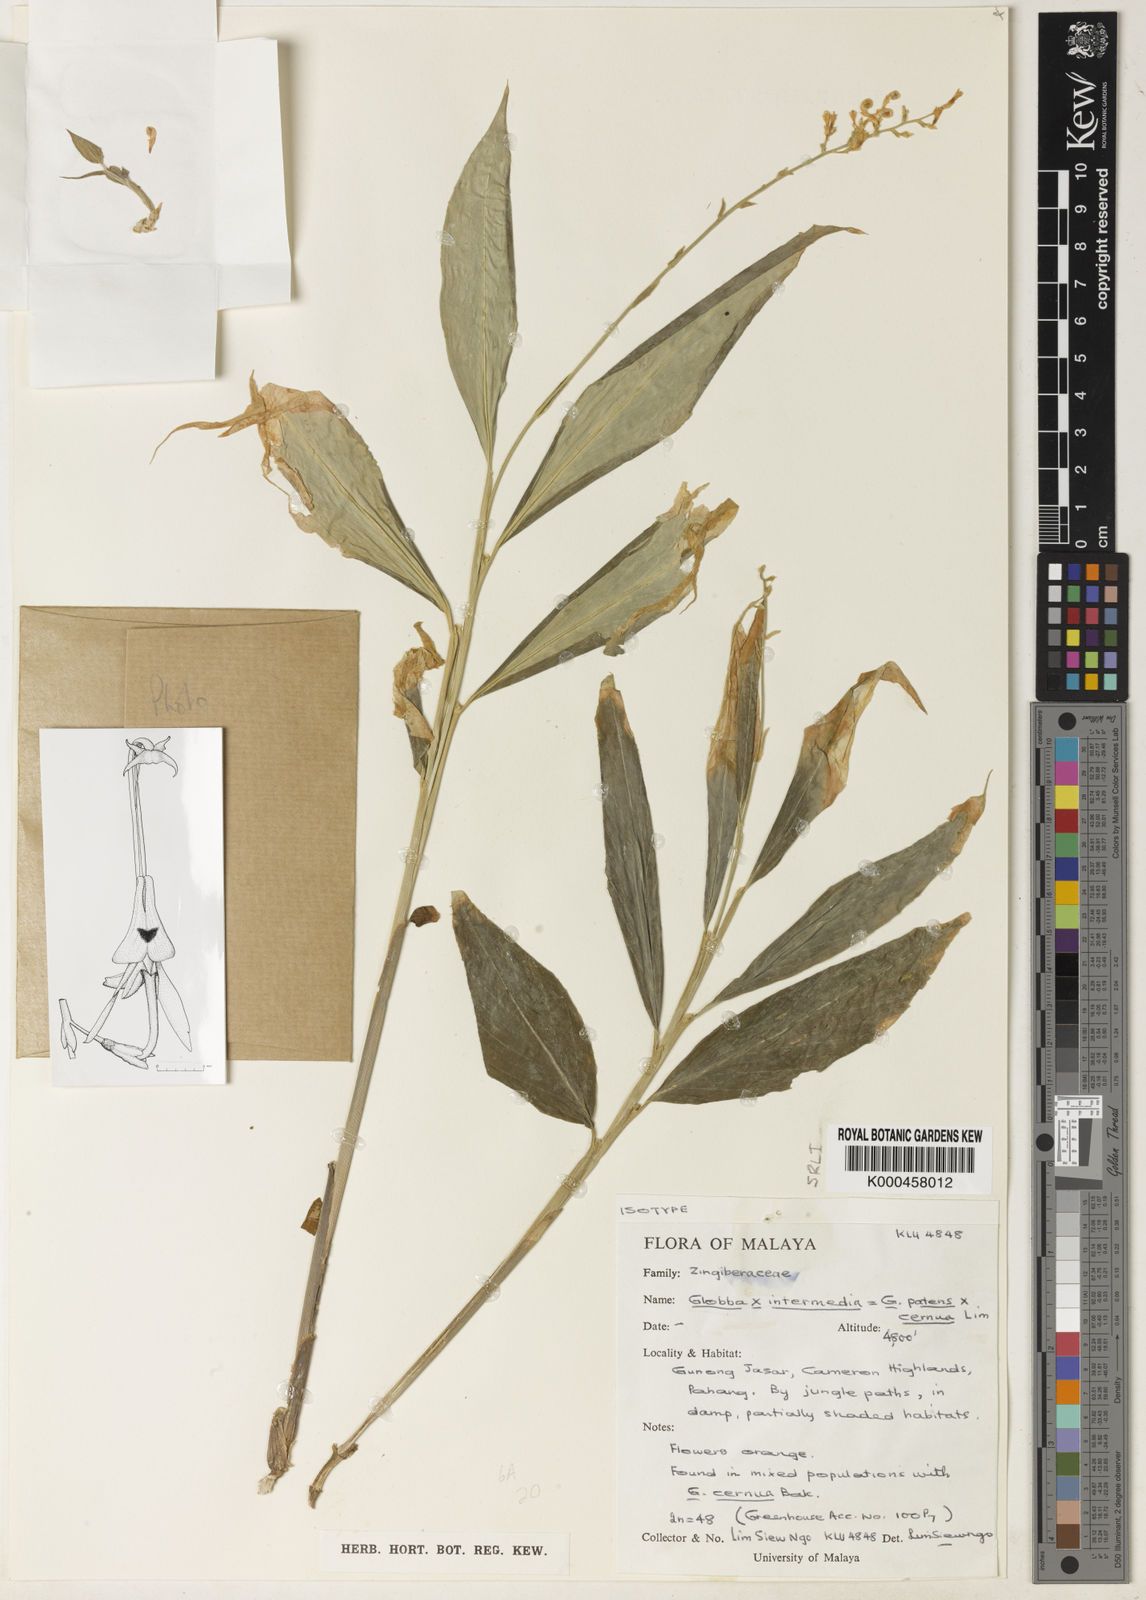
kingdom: Plantae
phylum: Tracheophyta
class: Liliopsida
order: Zingiberales
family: Zingiberaceae
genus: Globba
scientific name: Globba intermedia
